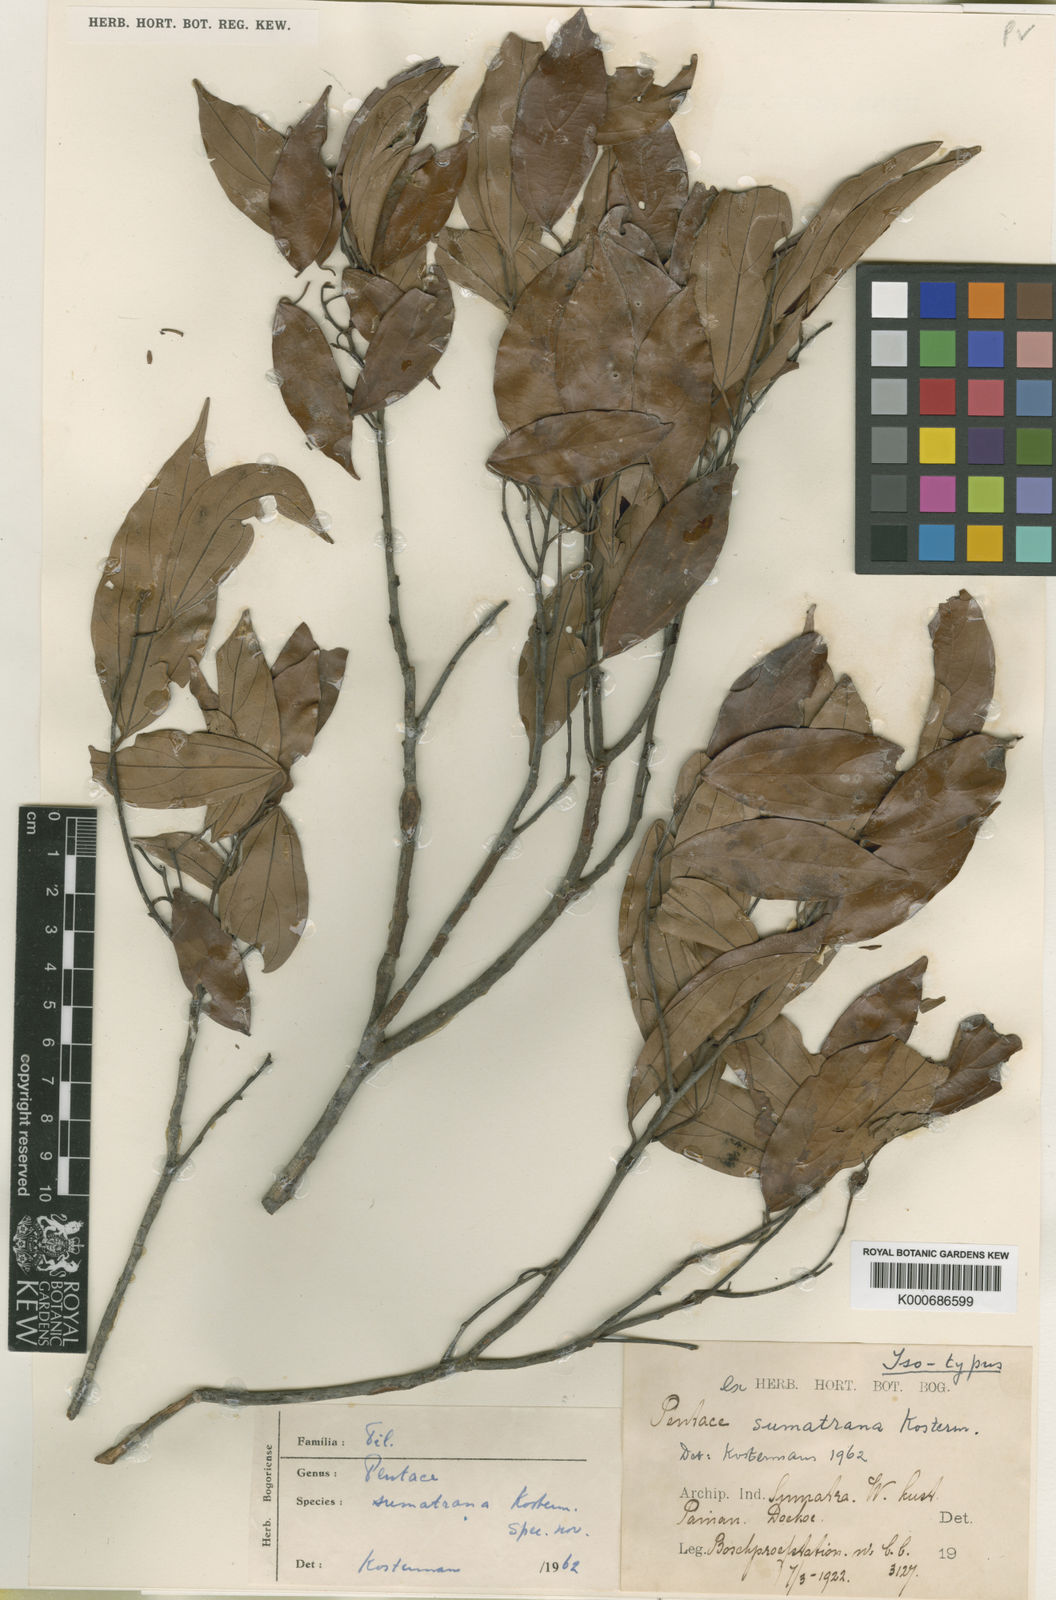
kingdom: Plantae
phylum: Tracheophyta
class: Magnoliopsida
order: Malvales
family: Malvaceae
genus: Pentace
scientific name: Pentace sumatrana
